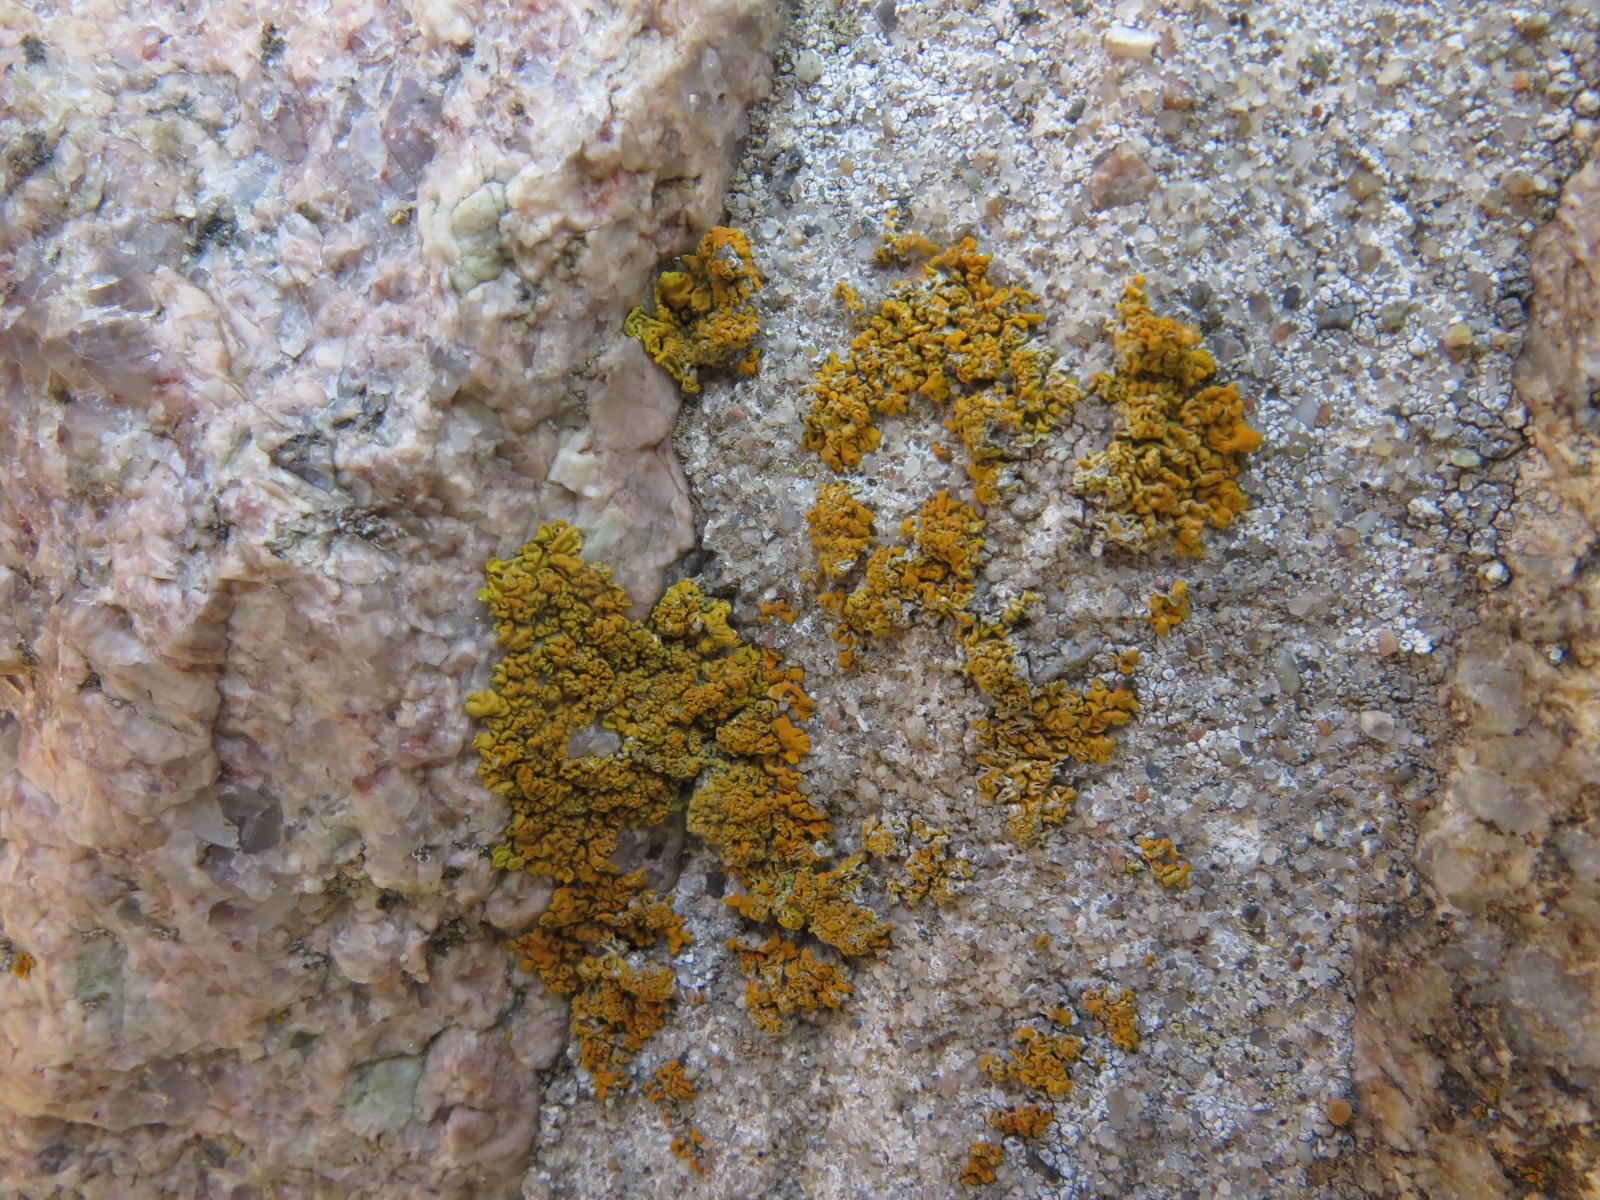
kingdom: Fungi
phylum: Ascomycota
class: Lecanoromycetes
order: Teloschistales
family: Teloschistaceae
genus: Xanthoria
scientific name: Xanthoria calcicola
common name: vortet væggelav
